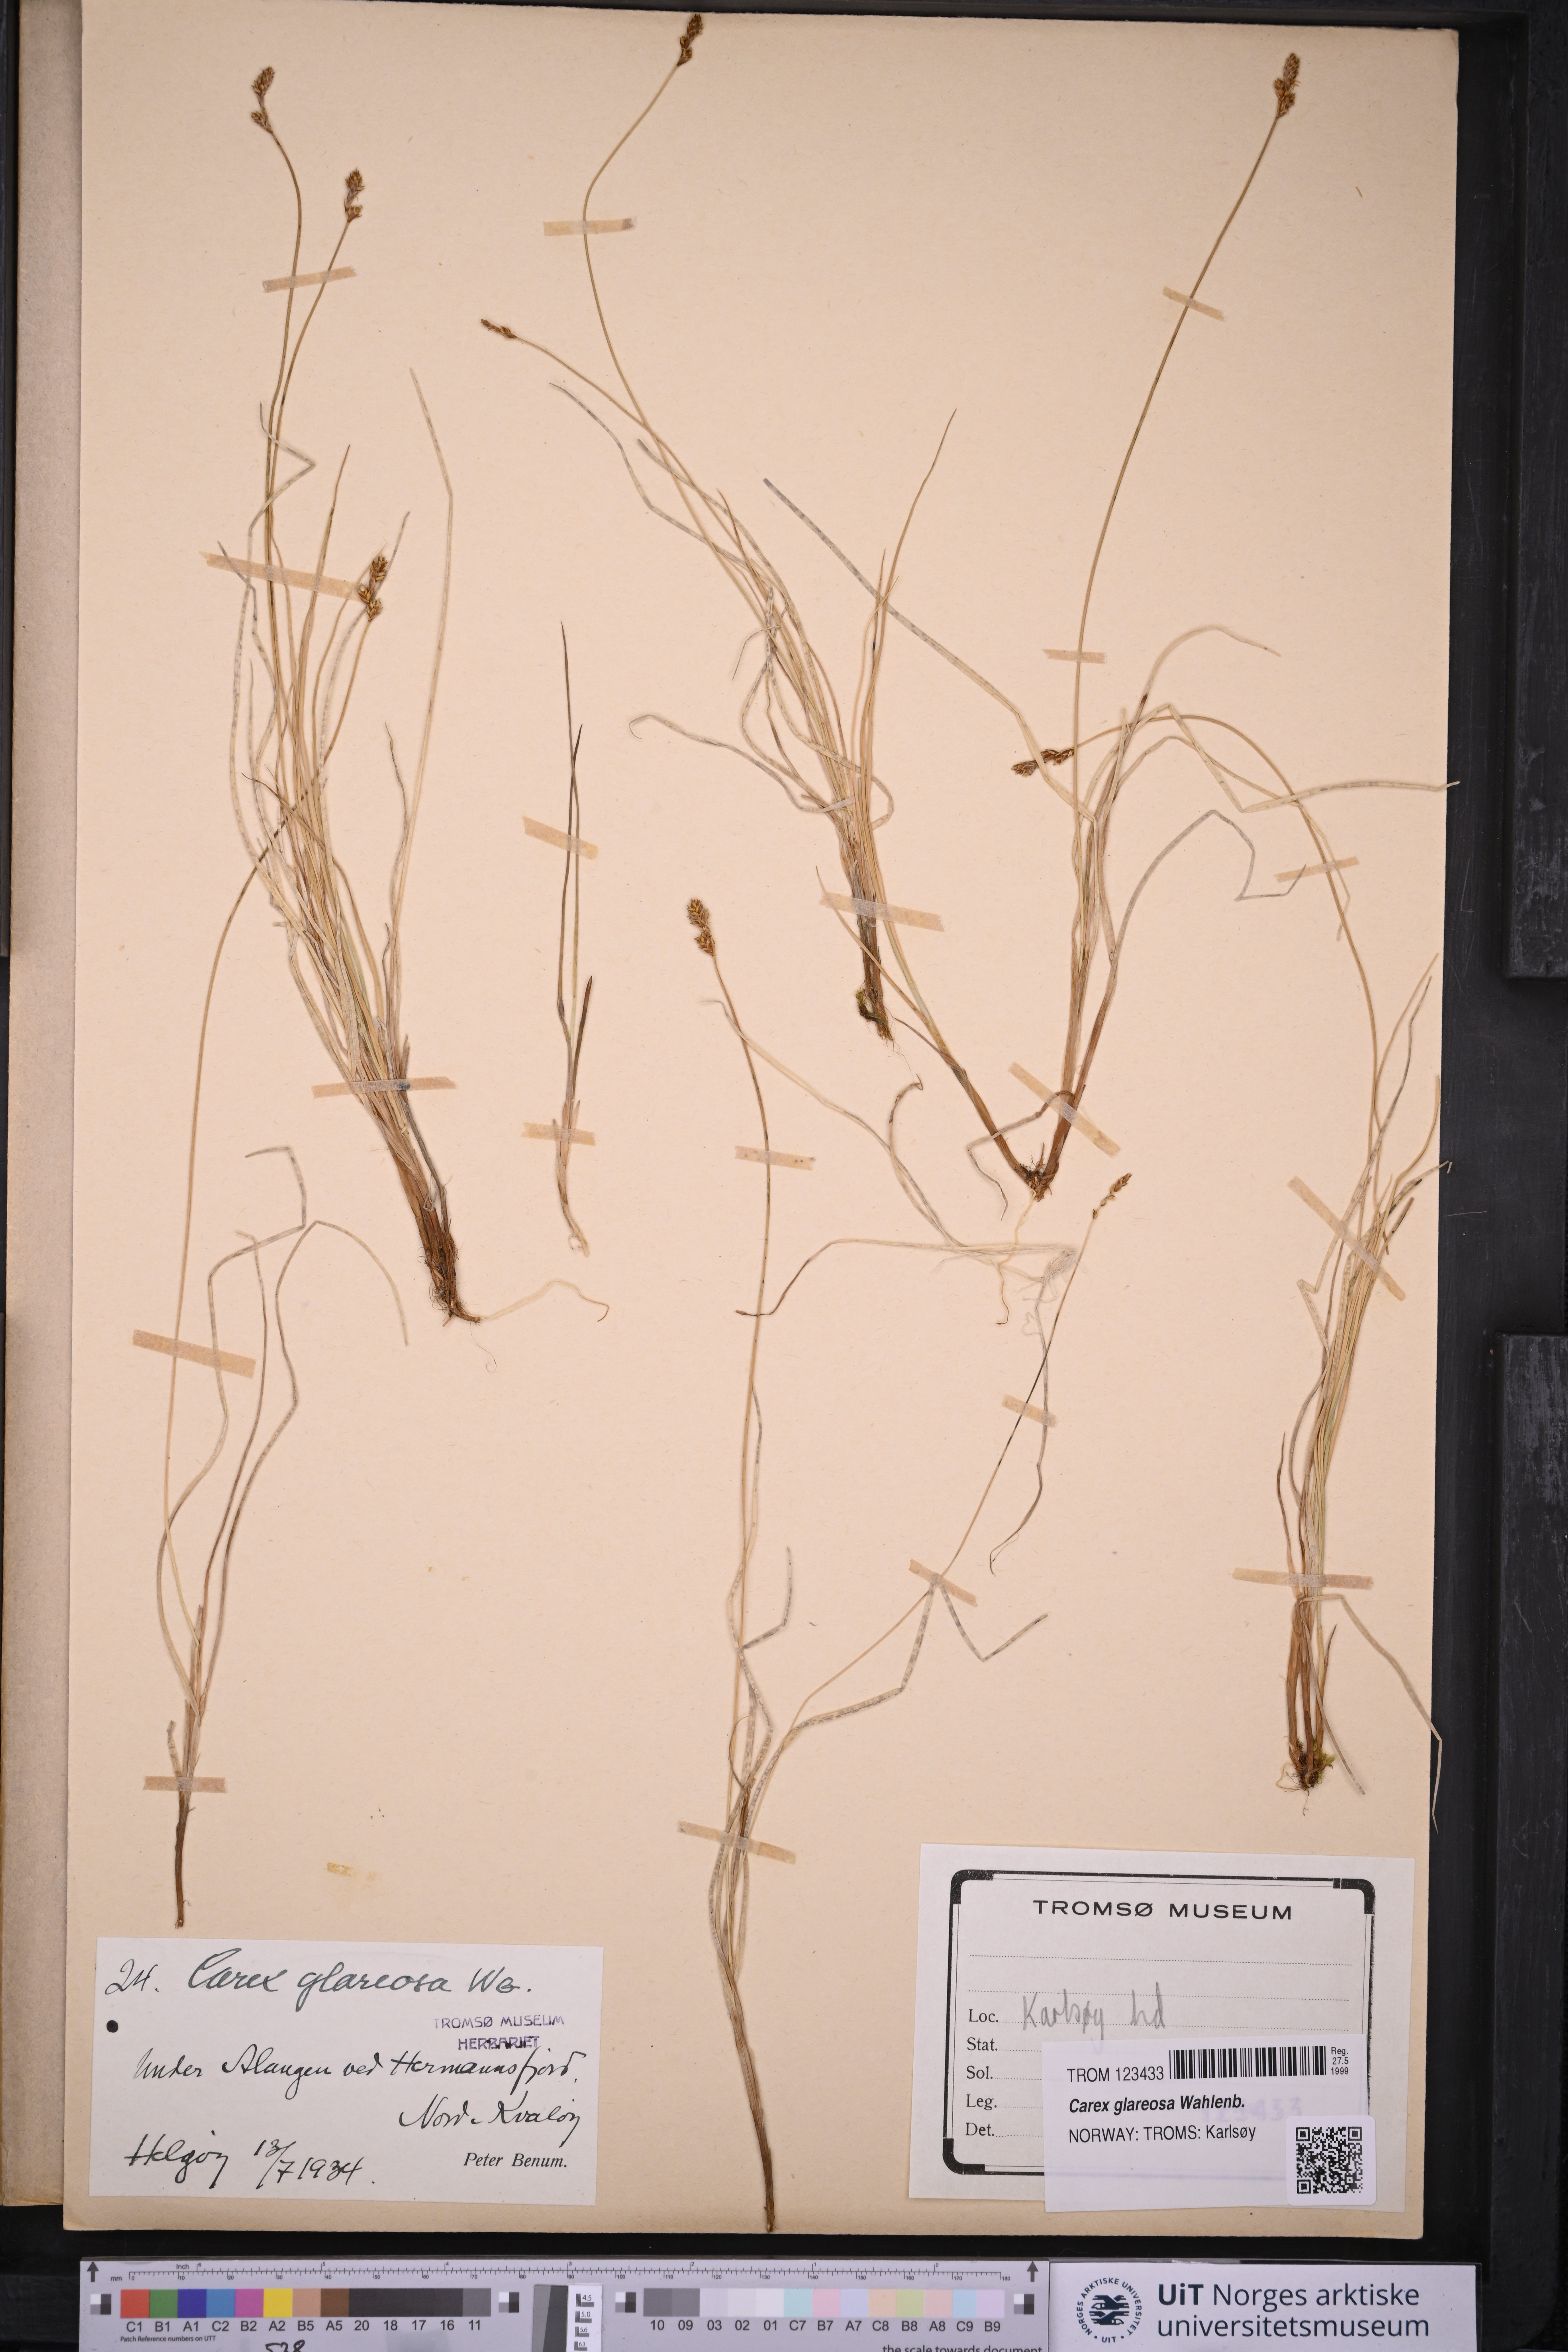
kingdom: Plantae
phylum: Tracheophyta
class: Liliopsida
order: Poales
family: Cyperaceae
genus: Carex
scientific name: Carex glareosa
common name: Clustered sedge
